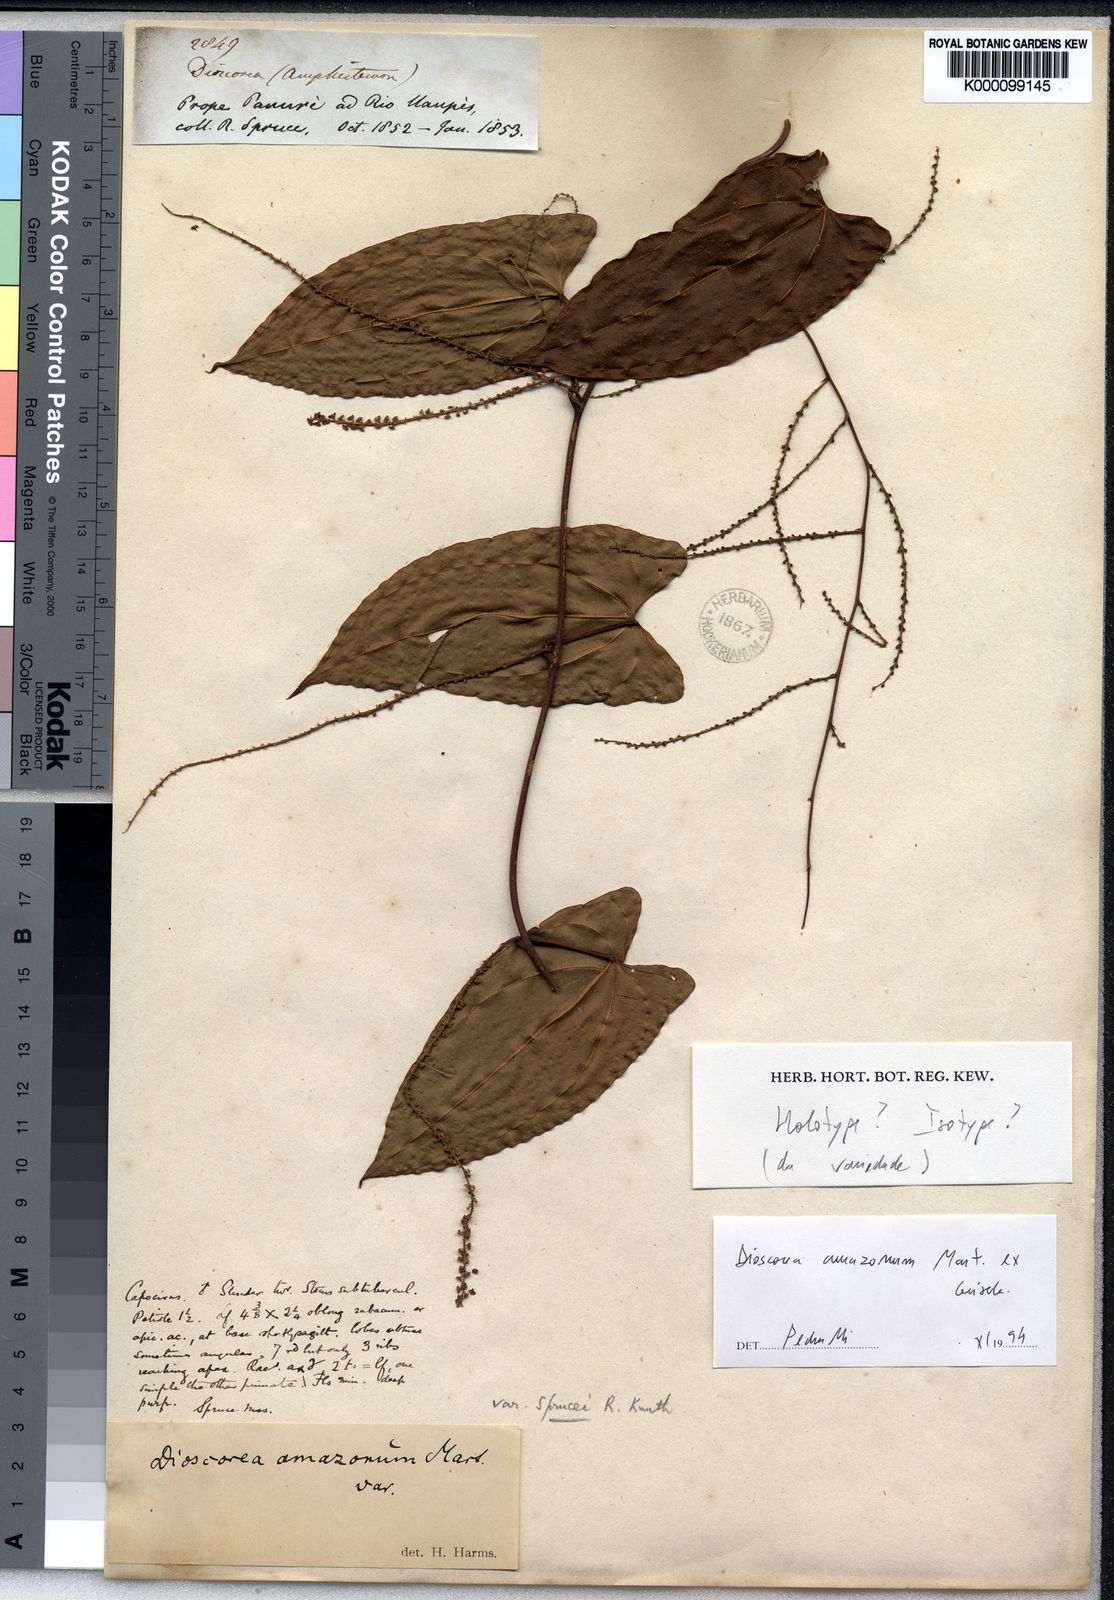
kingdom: Plantae
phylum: Tracheophyta
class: Liliopsida
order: Dioscoreales
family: Dioscoreaceae
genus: Dioscorea
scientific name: Dioscorea amazonum
